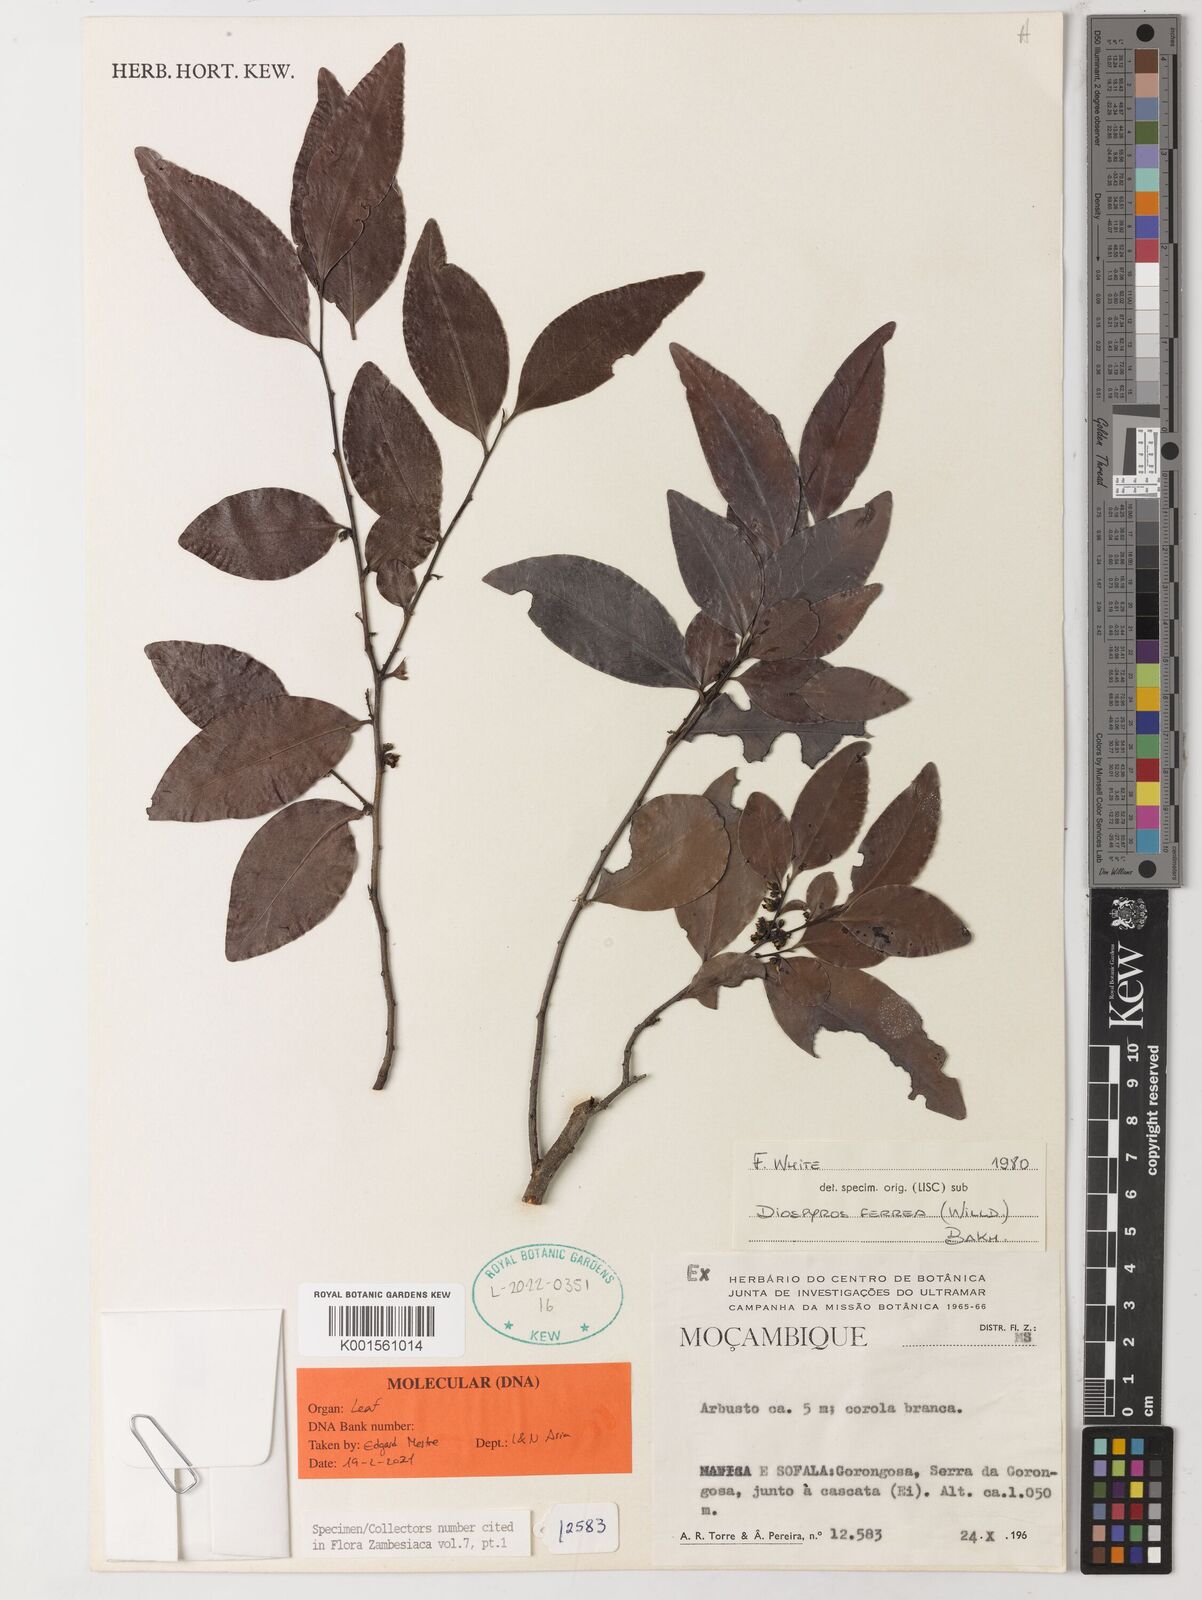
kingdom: Plantae
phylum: Tracheophyta
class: Magnoliopsida
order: Ericales
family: Ebenaceae
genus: Diospyros
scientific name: Diospyros ferrea
